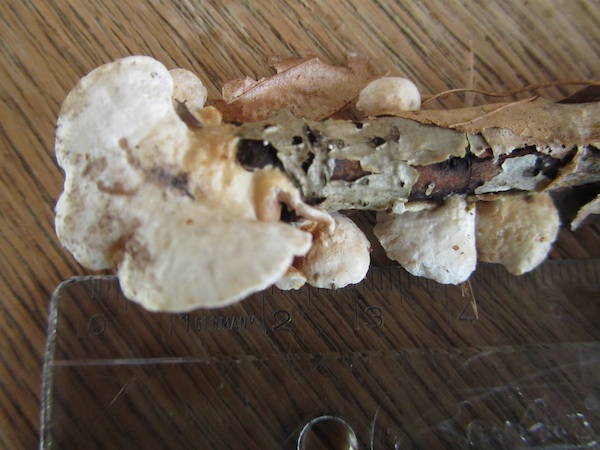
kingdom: Fungi
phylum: Basidiomycota
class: Agaricomycetes
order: Agaricales
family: Crepidotaceae
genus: Crepidotus
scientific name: Crepidotus variabilis
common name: forskelligformet muslingesvamp
